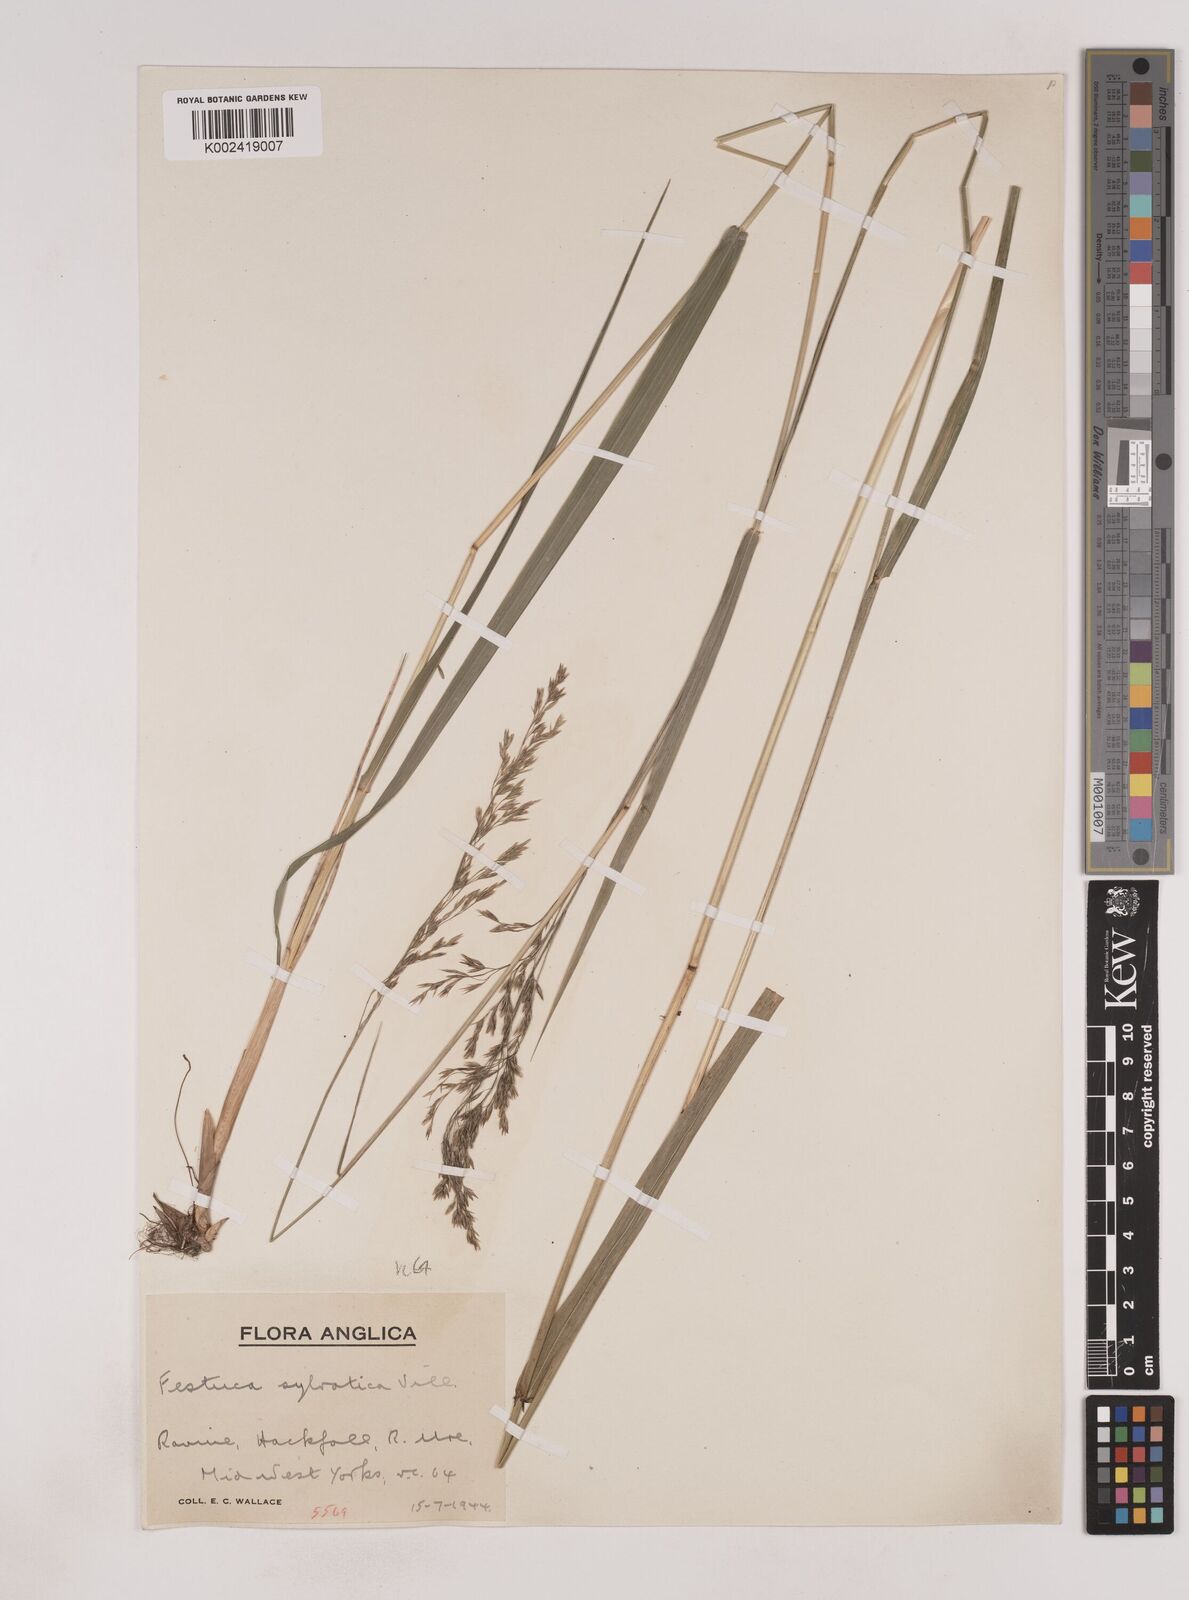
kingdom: Plantae
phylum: Tracheophyta
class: Liliopsida
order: Poales
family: Poaceae
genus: Festuca
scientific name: Festuca drymeja
